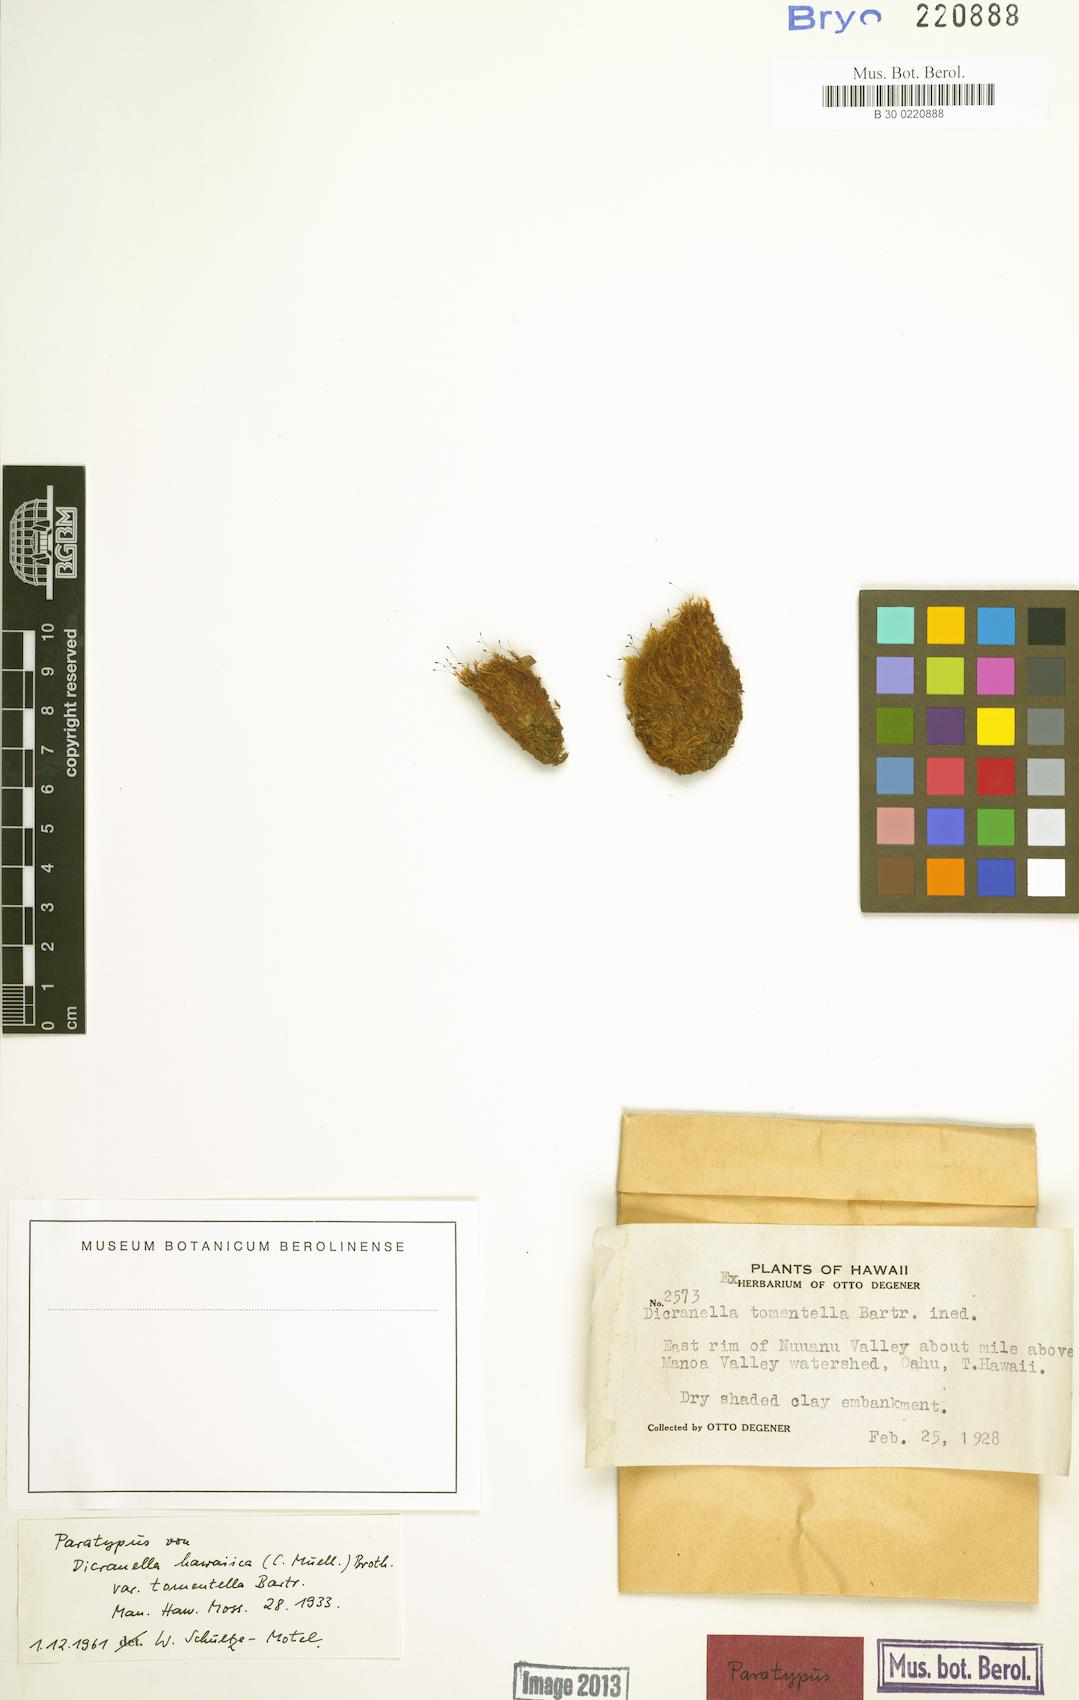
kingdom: Plantae
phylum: Bryophyta
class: Bryopsida
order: Dicranales
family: Dicranellaceae
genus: Dicranella
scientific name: Dicranella
